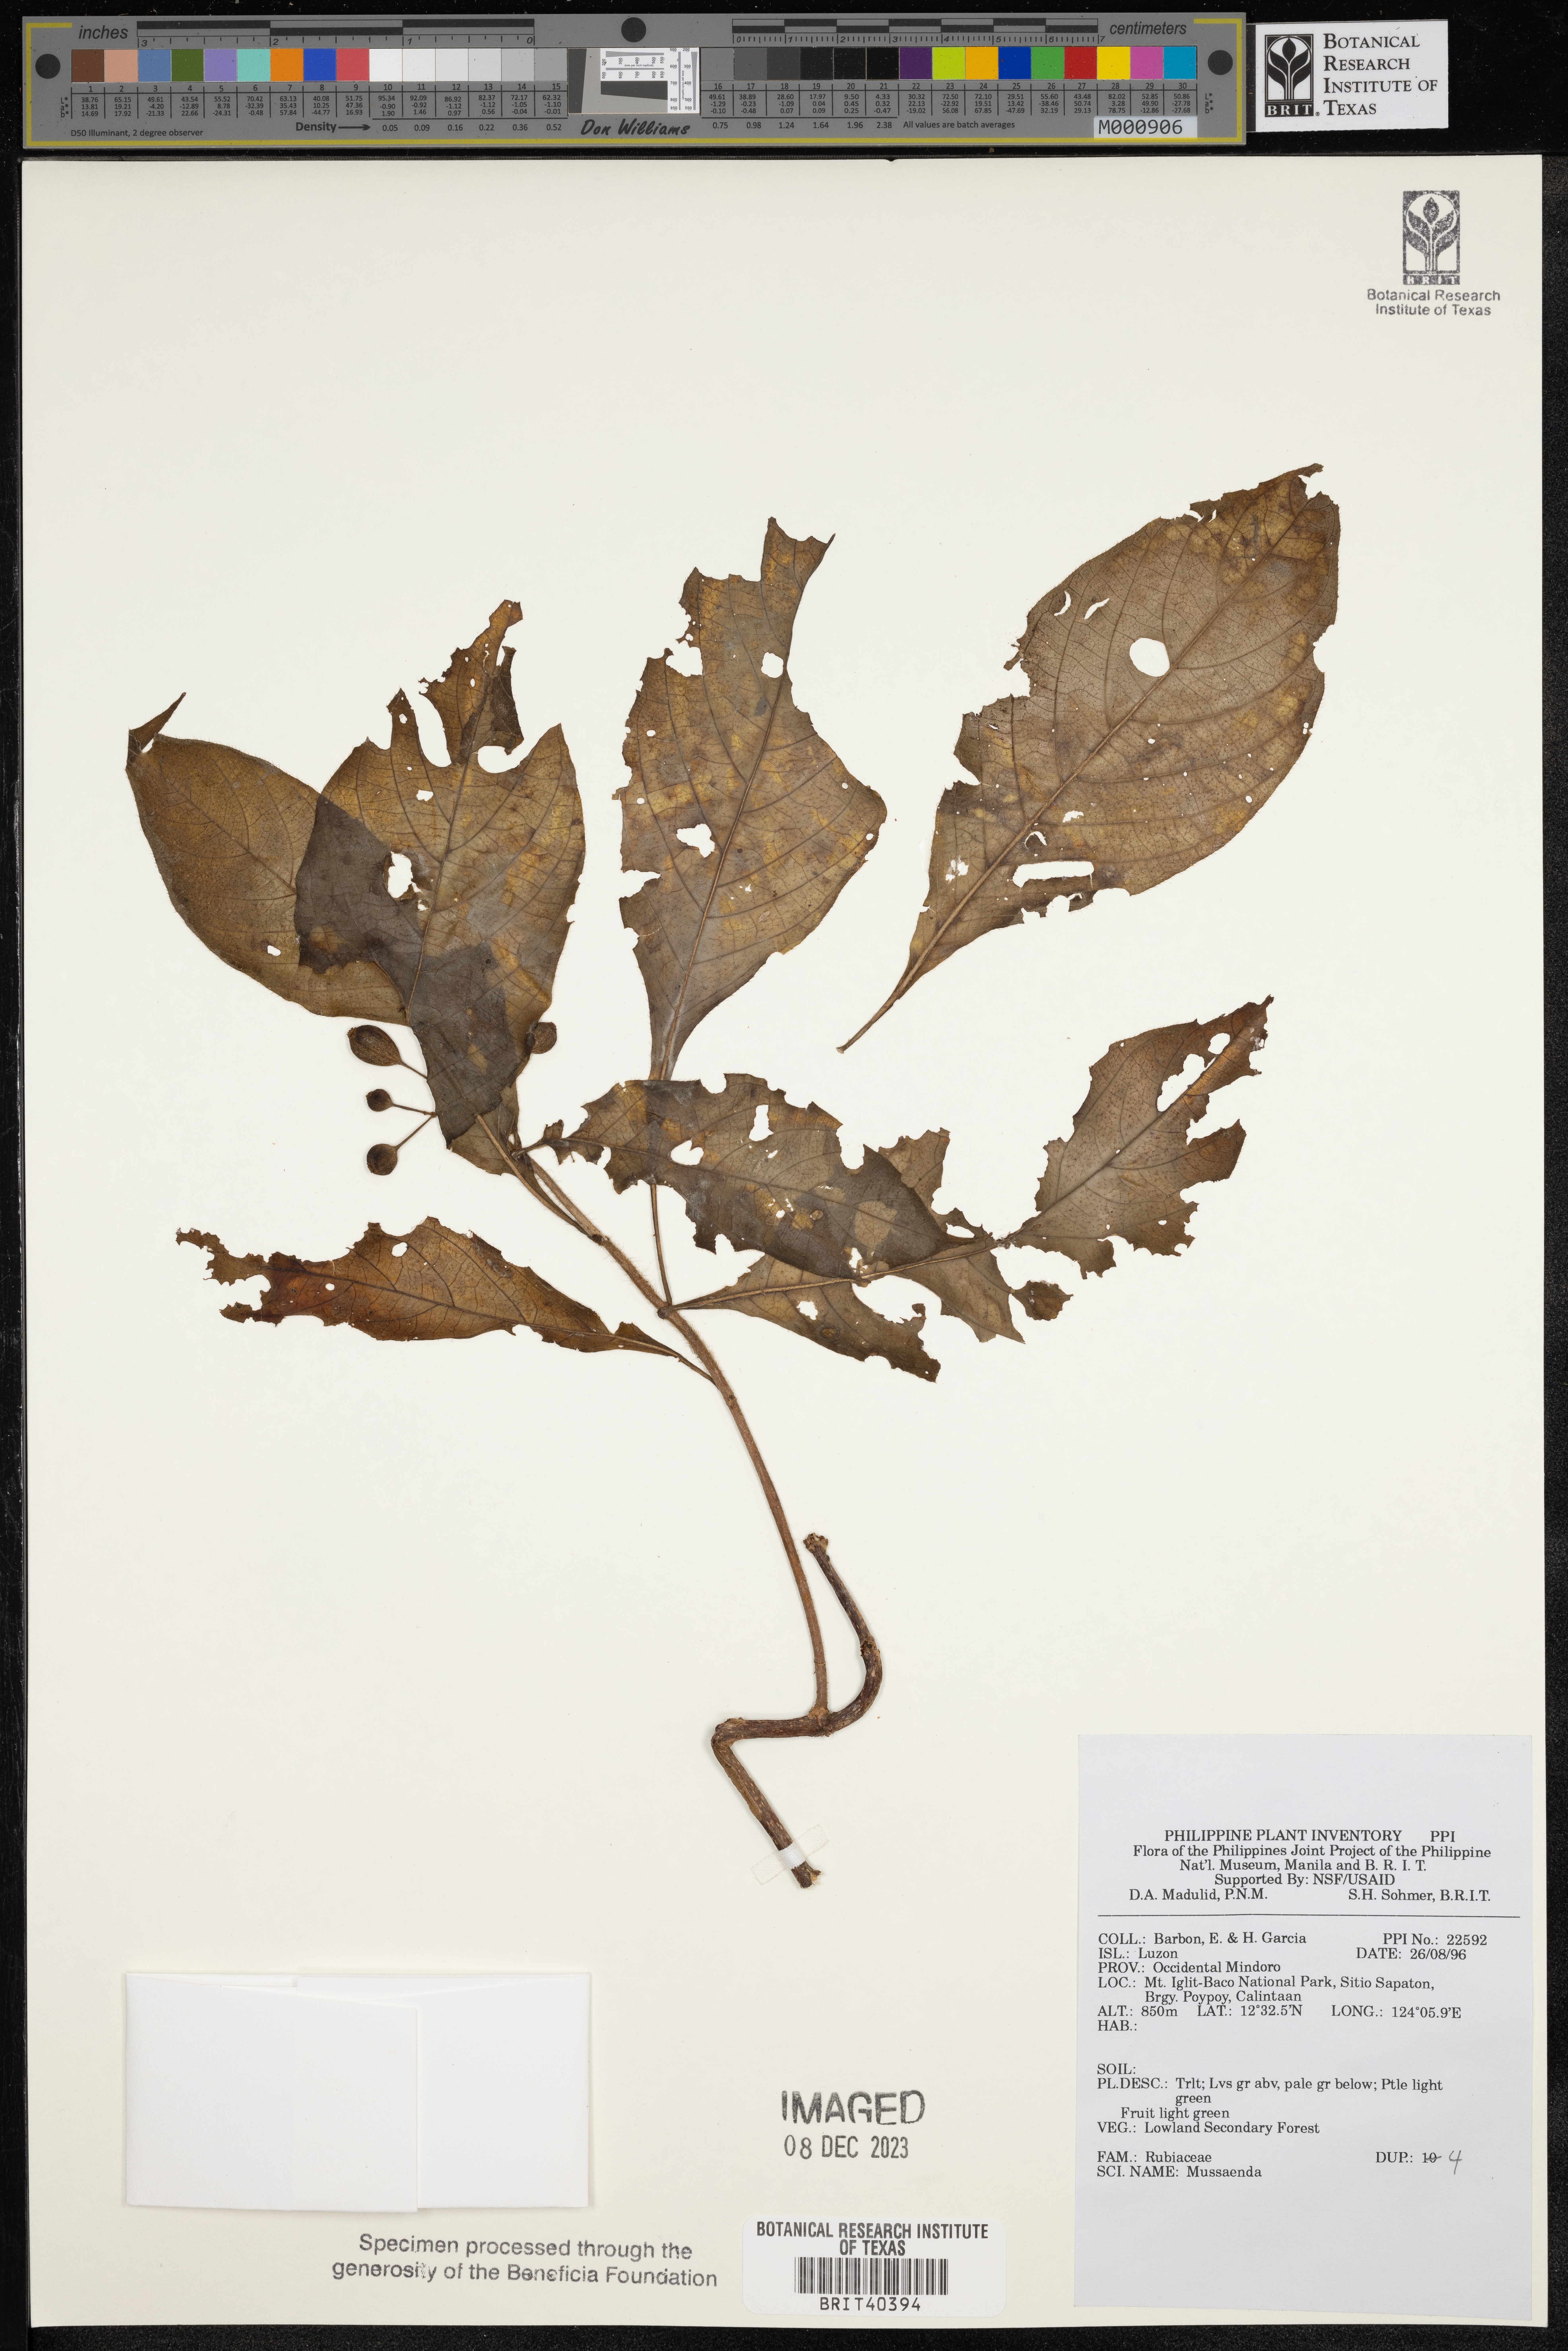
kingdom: Plantae
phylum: Tracheophyta
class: Magnoliopsida
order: Gentianales
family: Rubiaceae
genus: Mussaenda
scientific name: Mussaenda
